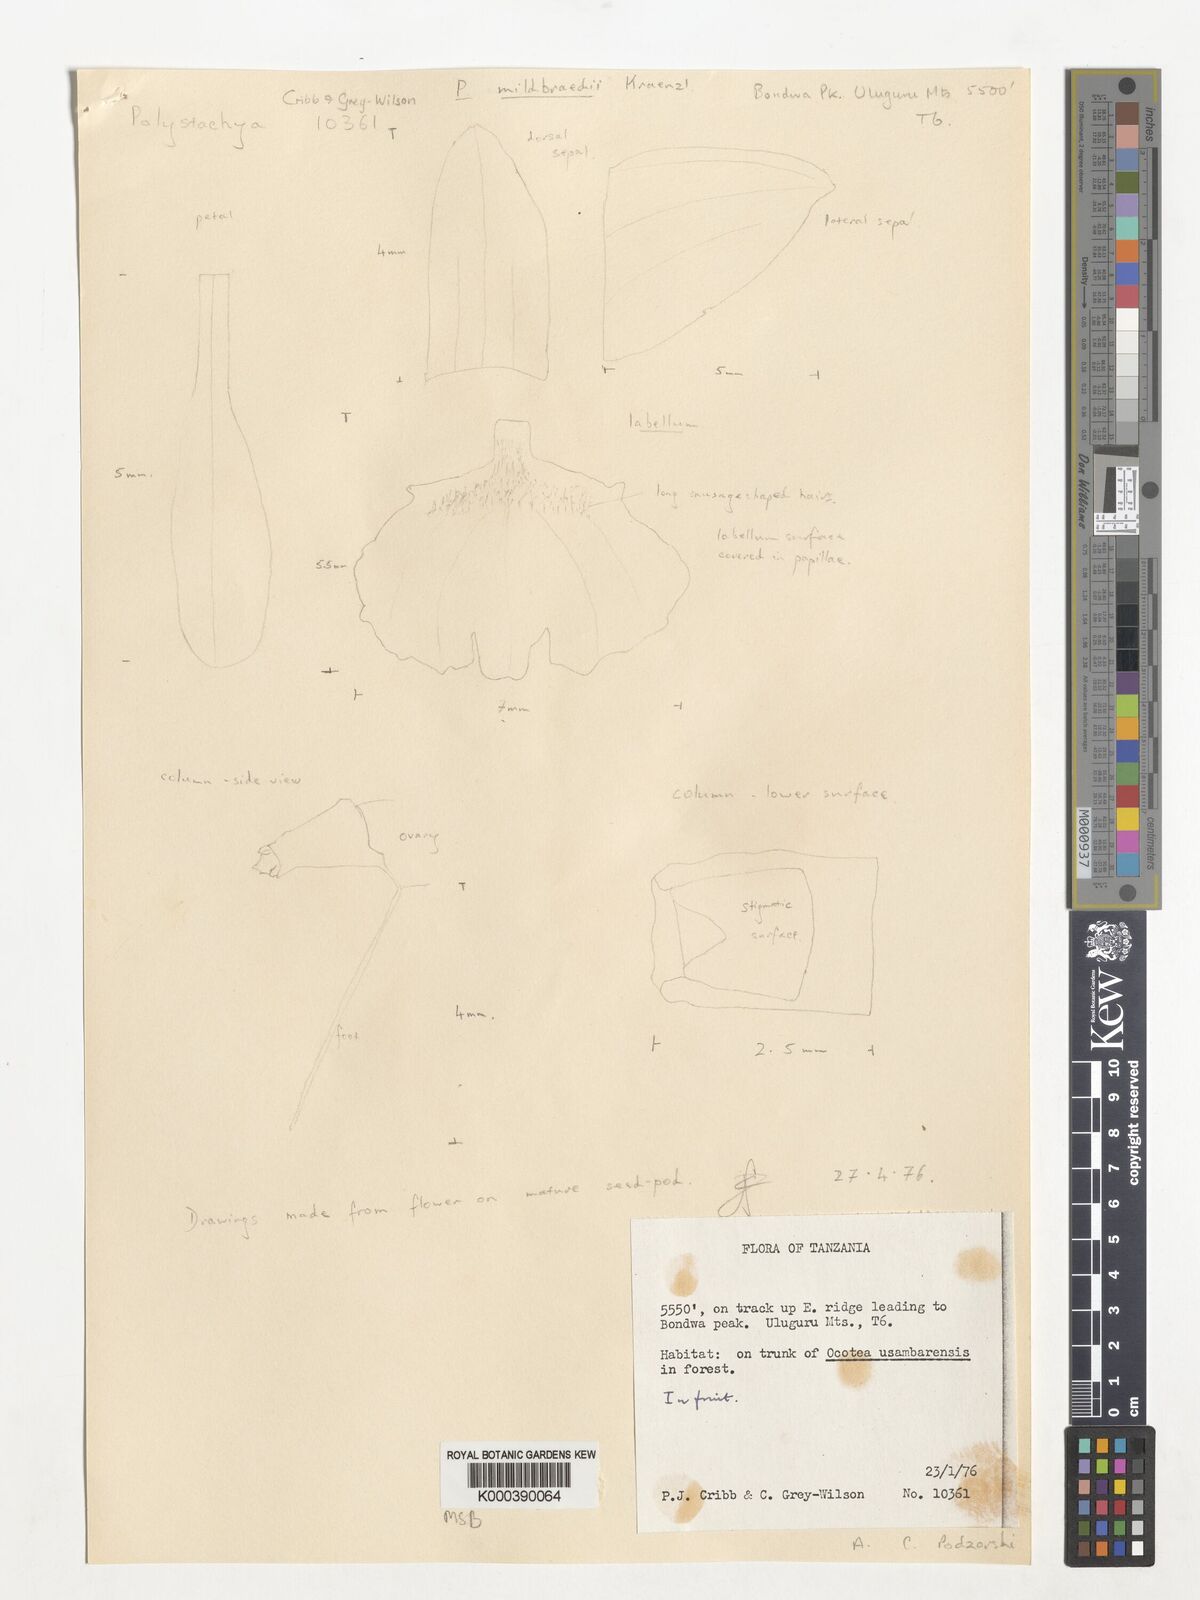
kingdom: Plantae
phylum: Tracheophyta
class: Liliopsida
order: Asparagales
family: Orchidaceae
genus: Polystachya
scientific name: Polystachya caespitifica
